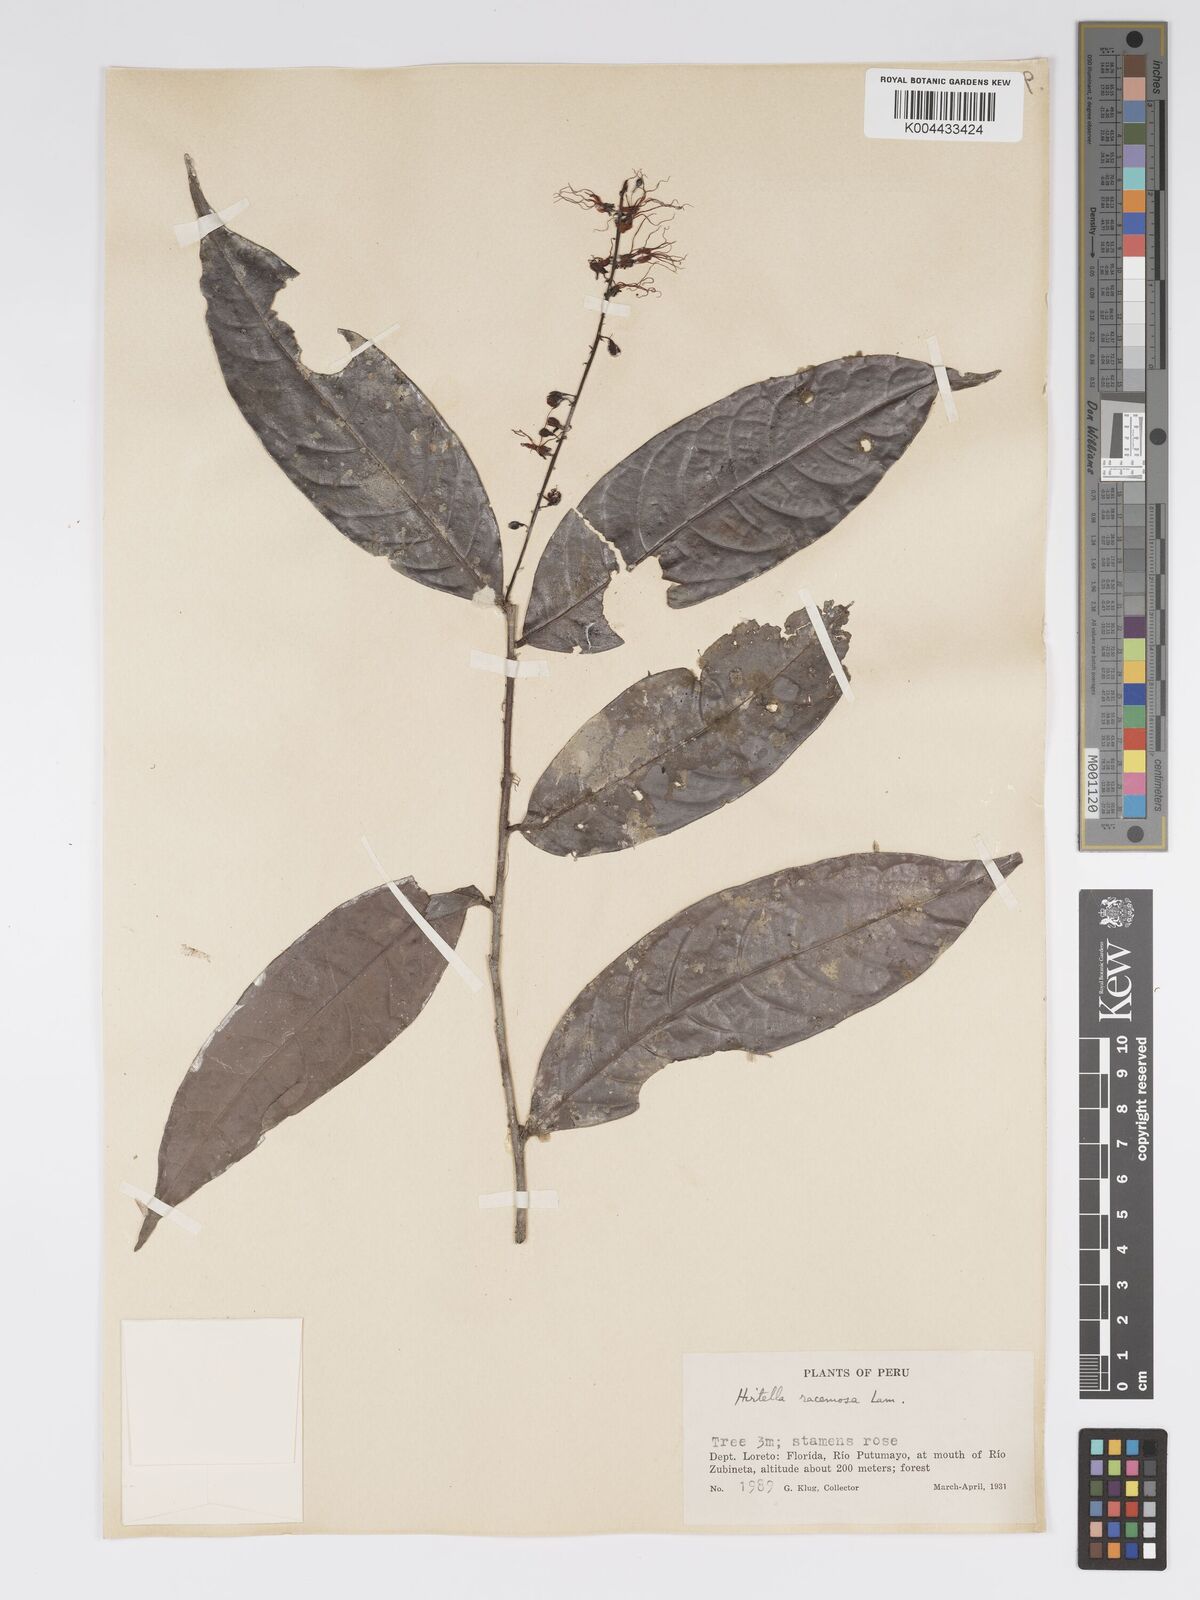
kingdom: Plantae
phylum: Tracheophyta
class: Magnoliopsida
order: Malpighiales
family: Chrysobalanaceae
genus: Hirtella
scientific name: Hirtella racemosa
